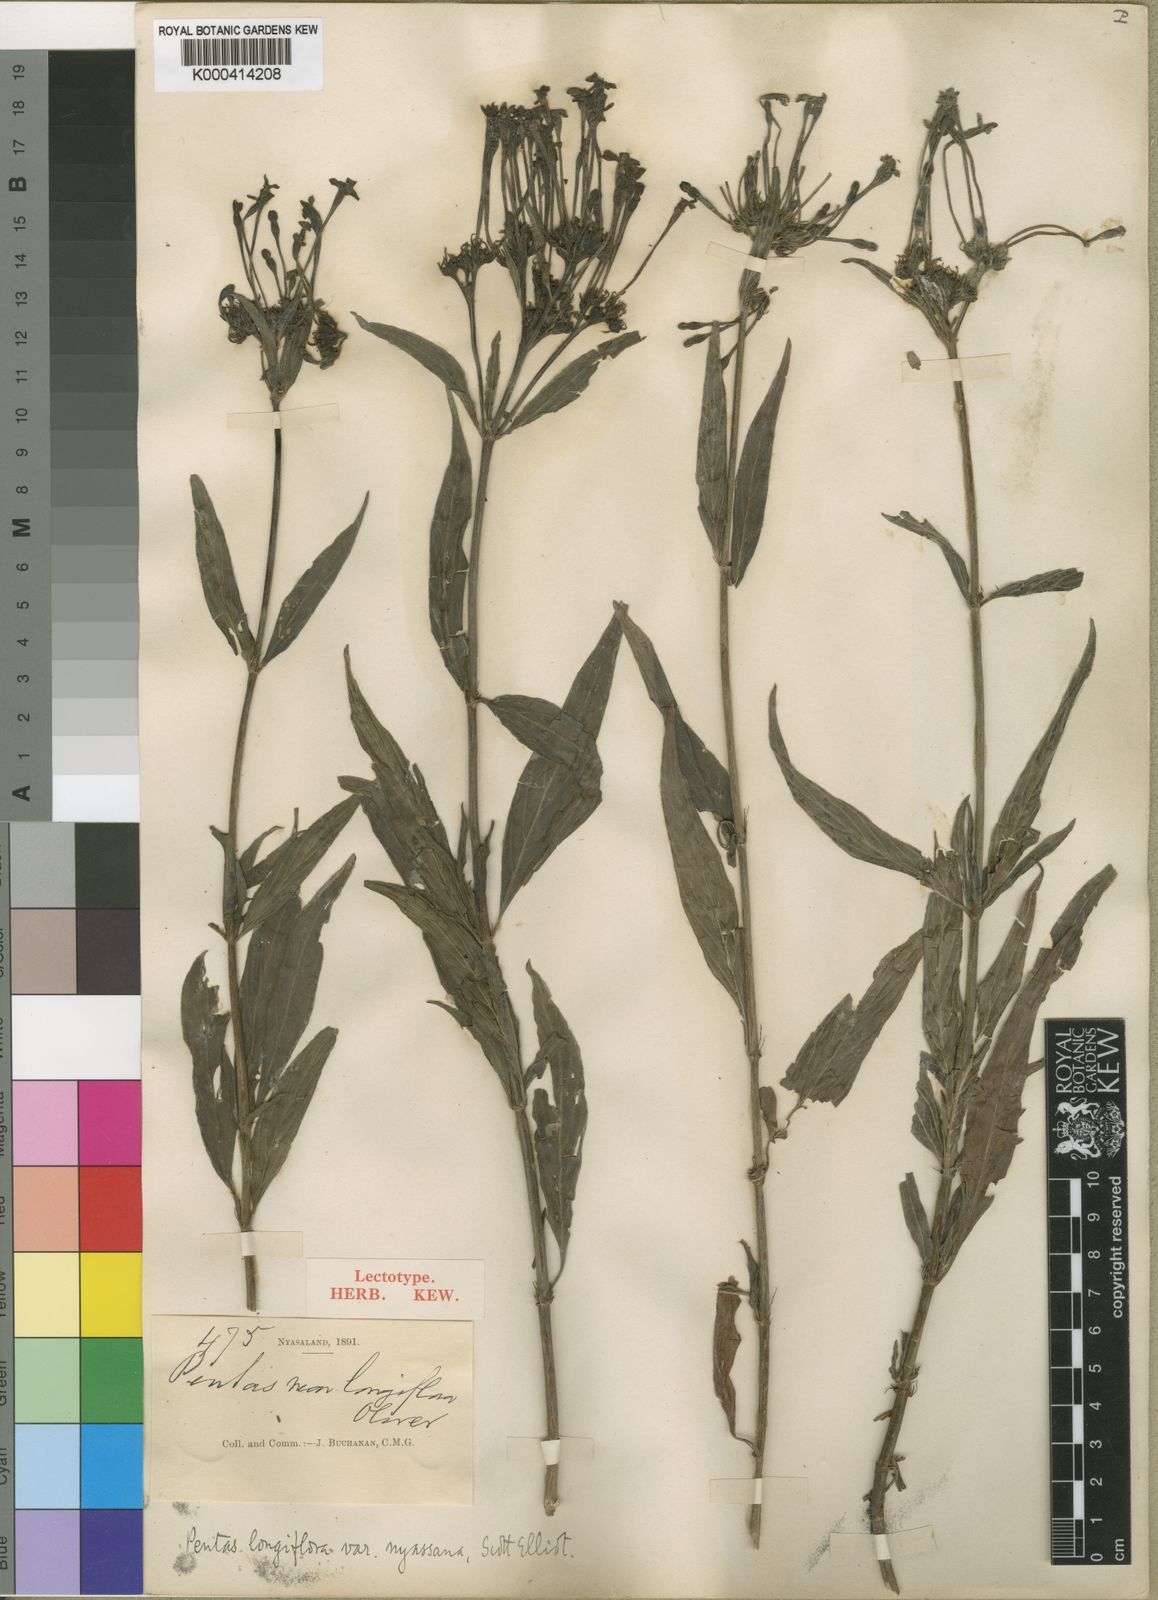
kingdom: Plantae
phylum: Tracheophyta
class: Magnoliopsida
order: Gentianales
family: Rubiaceae
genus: Dolichopentas
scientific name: Dolichopentas
